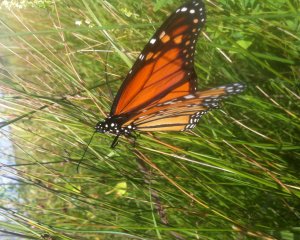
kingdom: Animalia
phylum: Arthropoda
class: Insecta
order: Lepidoptera
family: Nymphalidae
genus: Danaus
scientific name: Danaus plexippus
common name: Monarch
